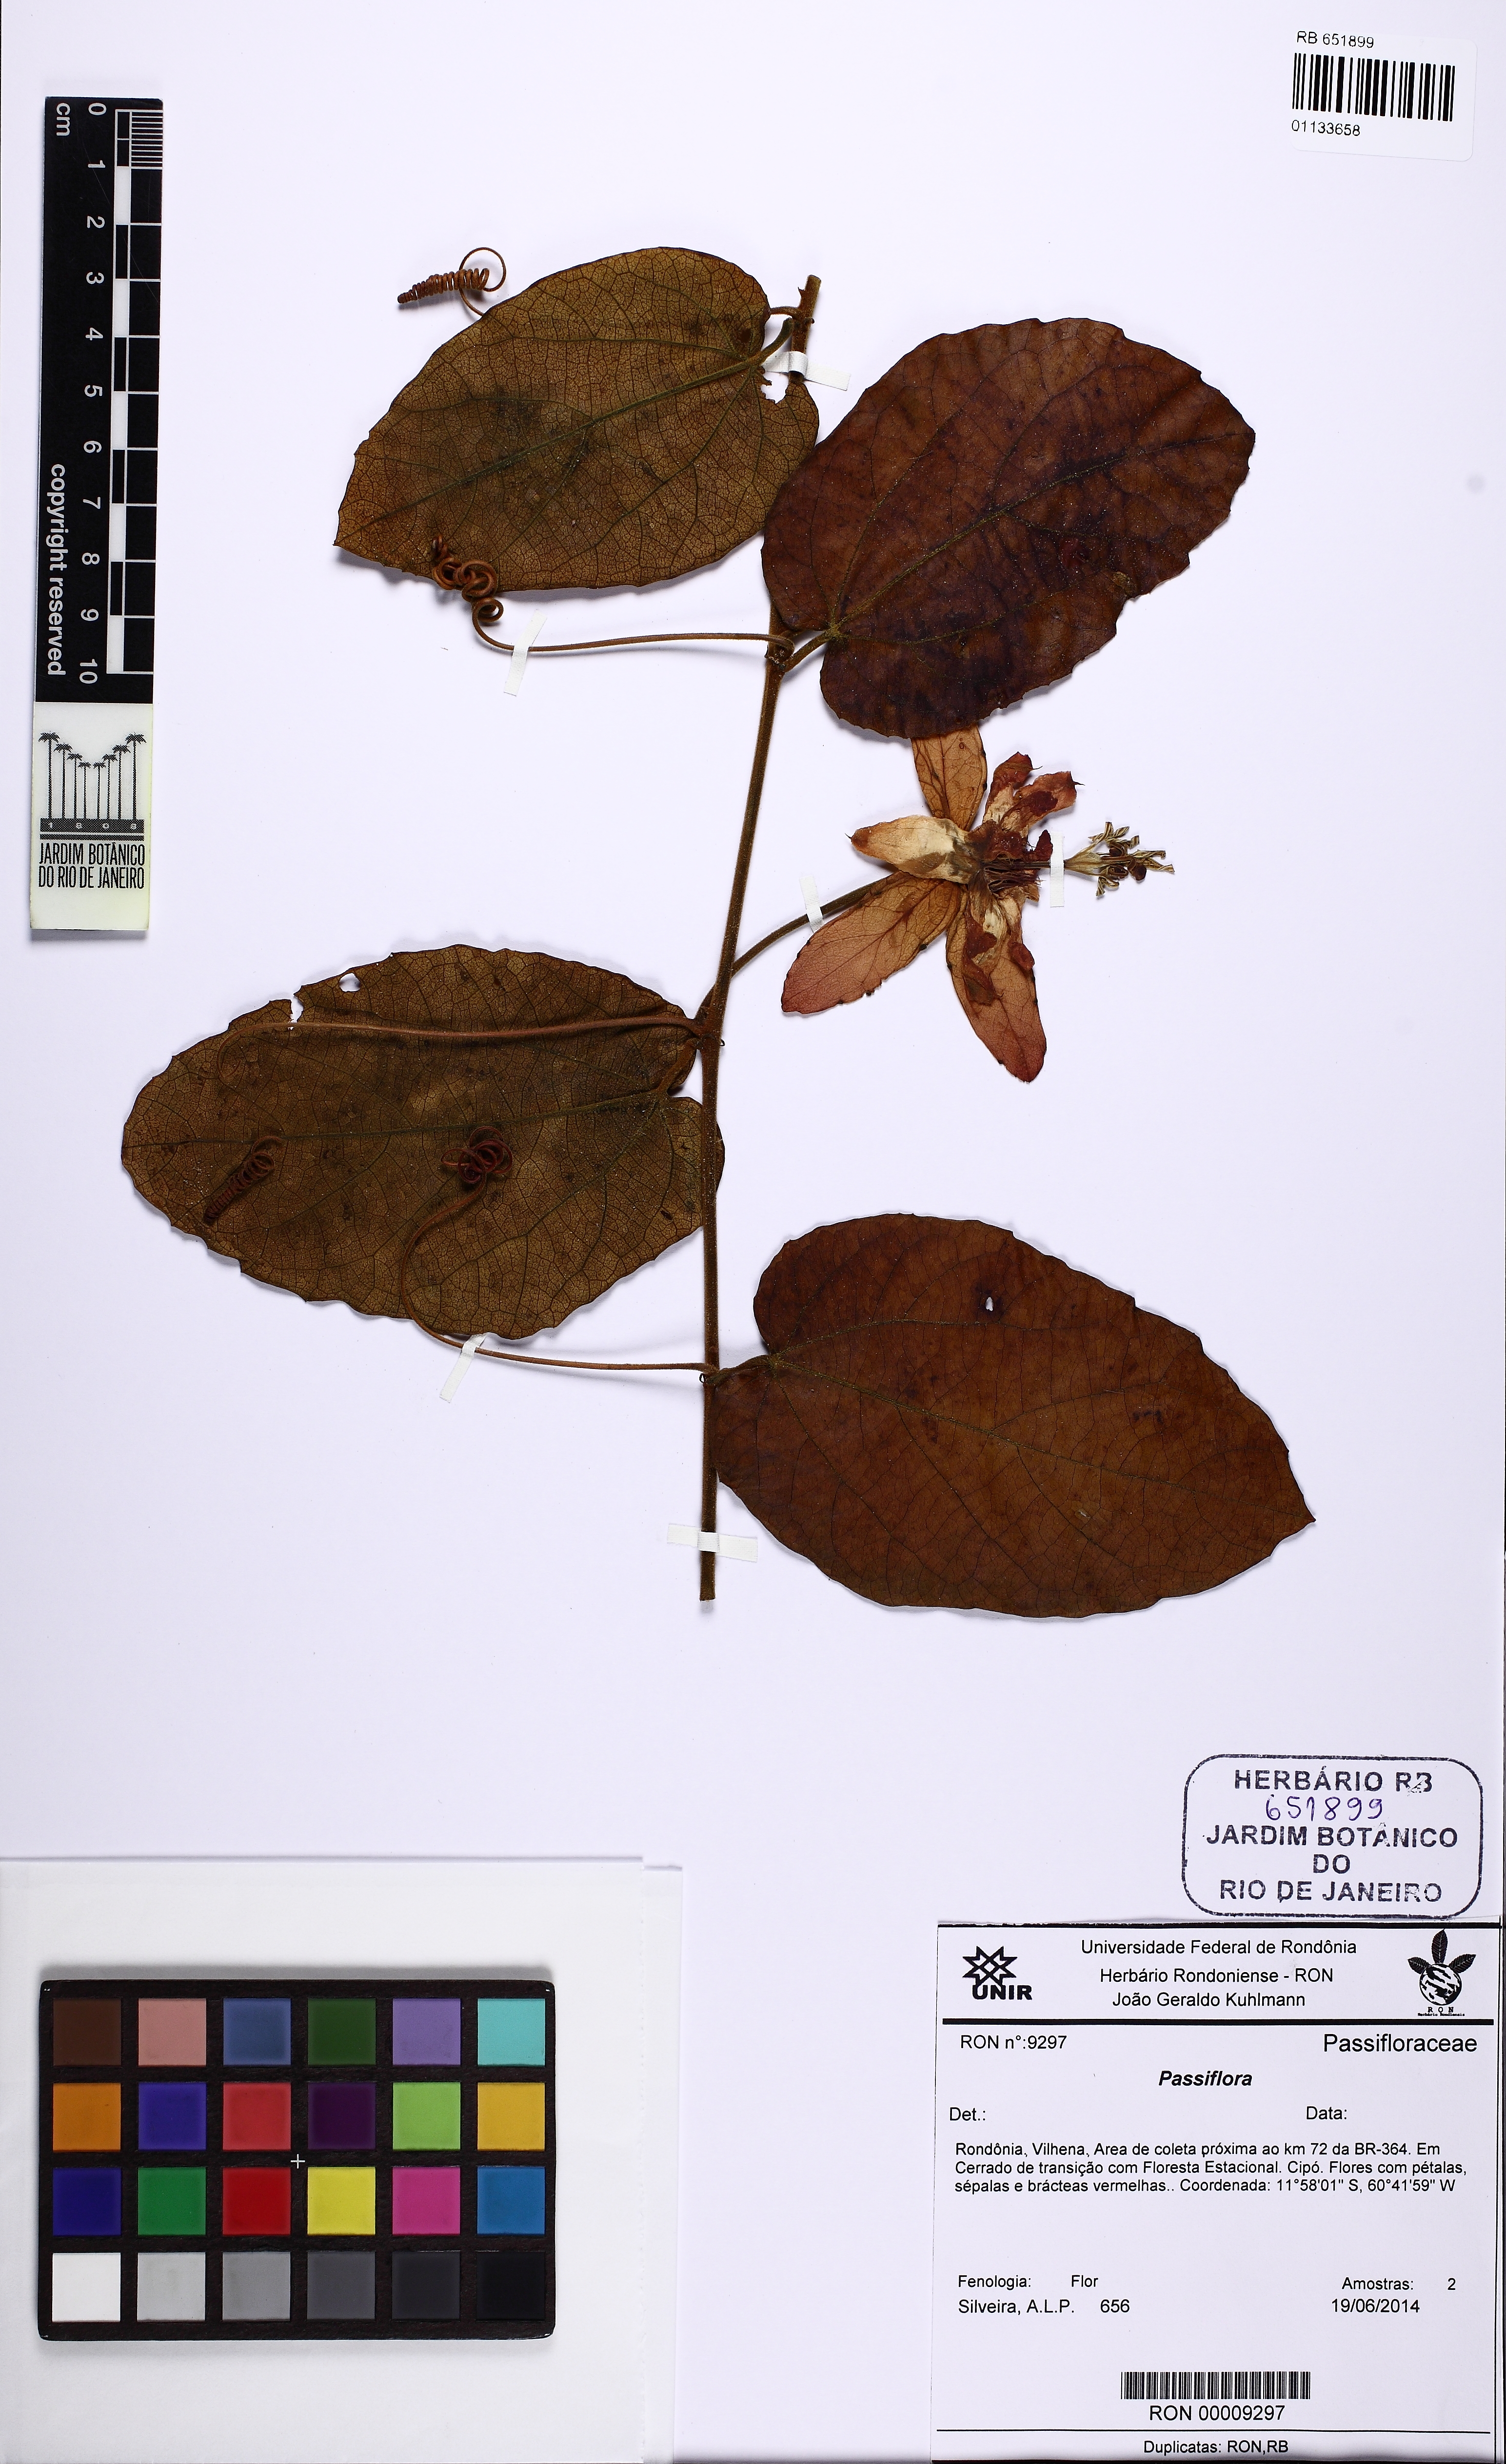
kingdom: Plantae
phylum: Tracheophyta
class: Magnoliopsida
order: Malpighiales
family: Passifloraceae
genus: Passiflora
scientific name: Passiflora tholozanii
